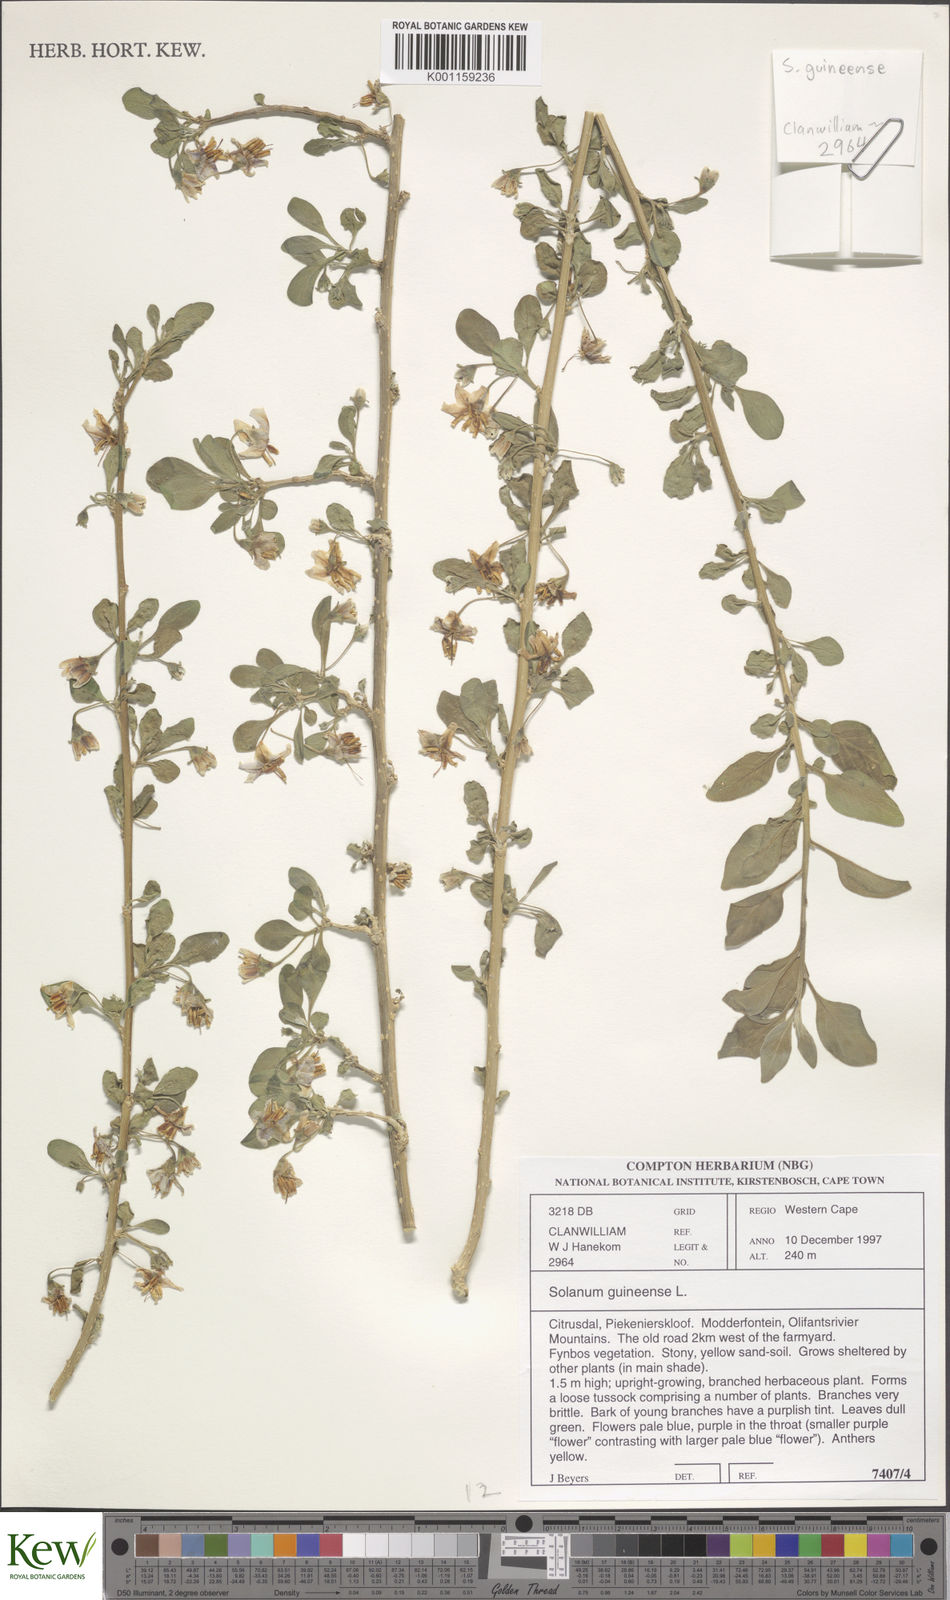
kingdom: Plantae
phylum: Tracheophyta
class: Magnoliopsida
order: Solanales
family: Solanaceae
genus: Solanum
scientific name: Solanum guineense
